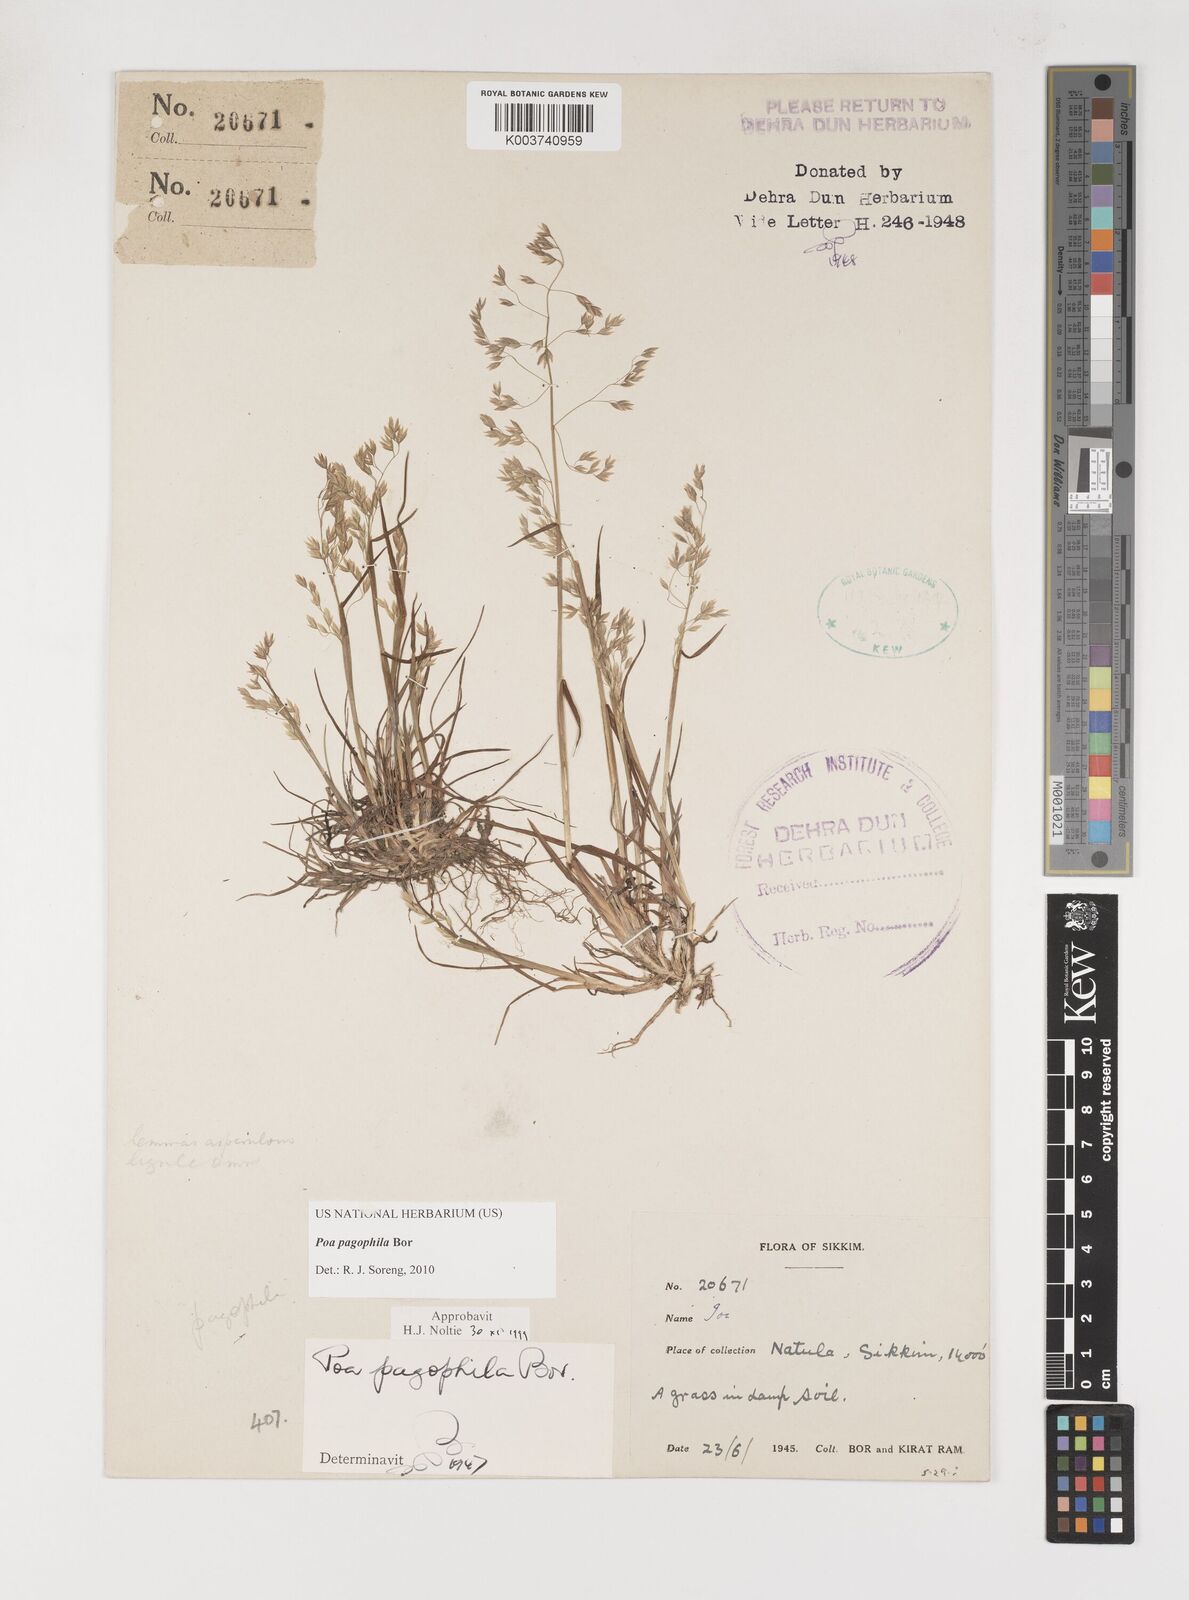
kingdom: Plantae
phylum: Tracheophyta
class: Liliopsida
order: Poales
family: Poaceae
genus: Poa
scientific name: Poa pagophila
